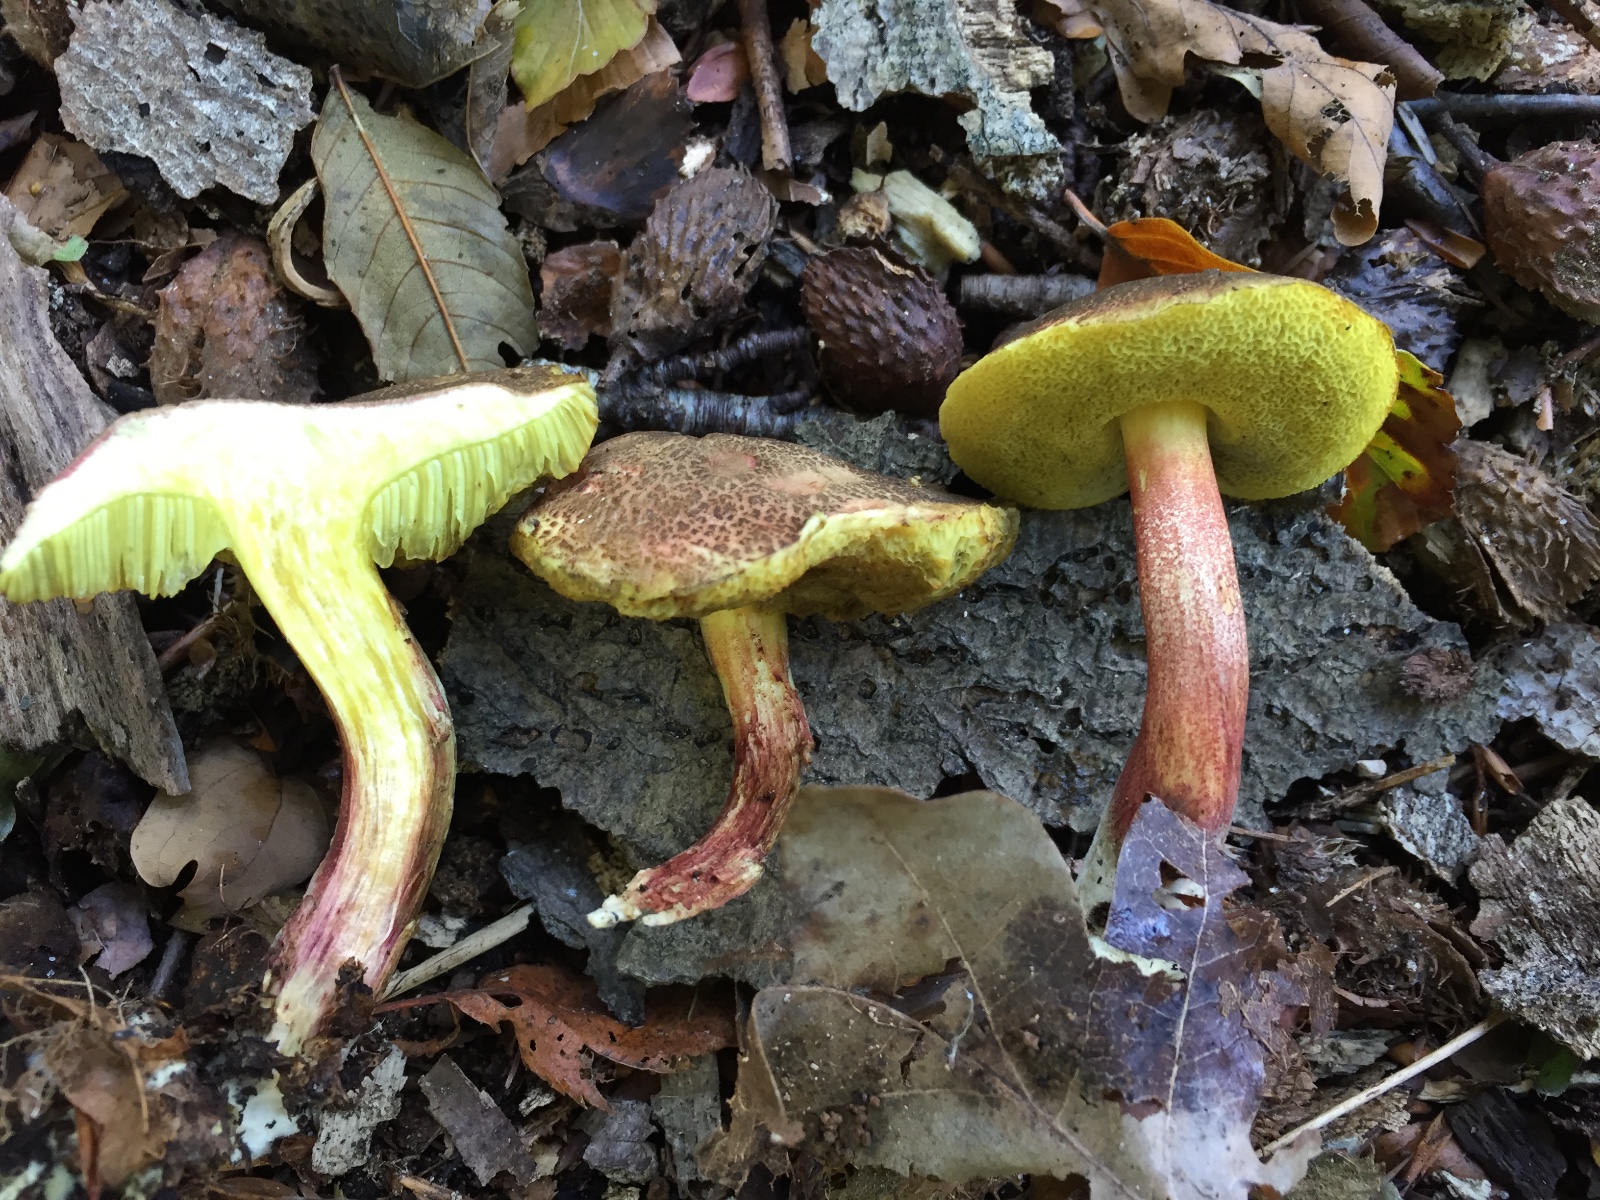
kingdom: Fungi
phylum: Basidiomycota
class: Agaricomycetes
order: Boletales
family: Boletaceae
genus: Xerocomellus
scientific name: Xerocomellus chrysenteron
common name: rødsprukken rørhat
